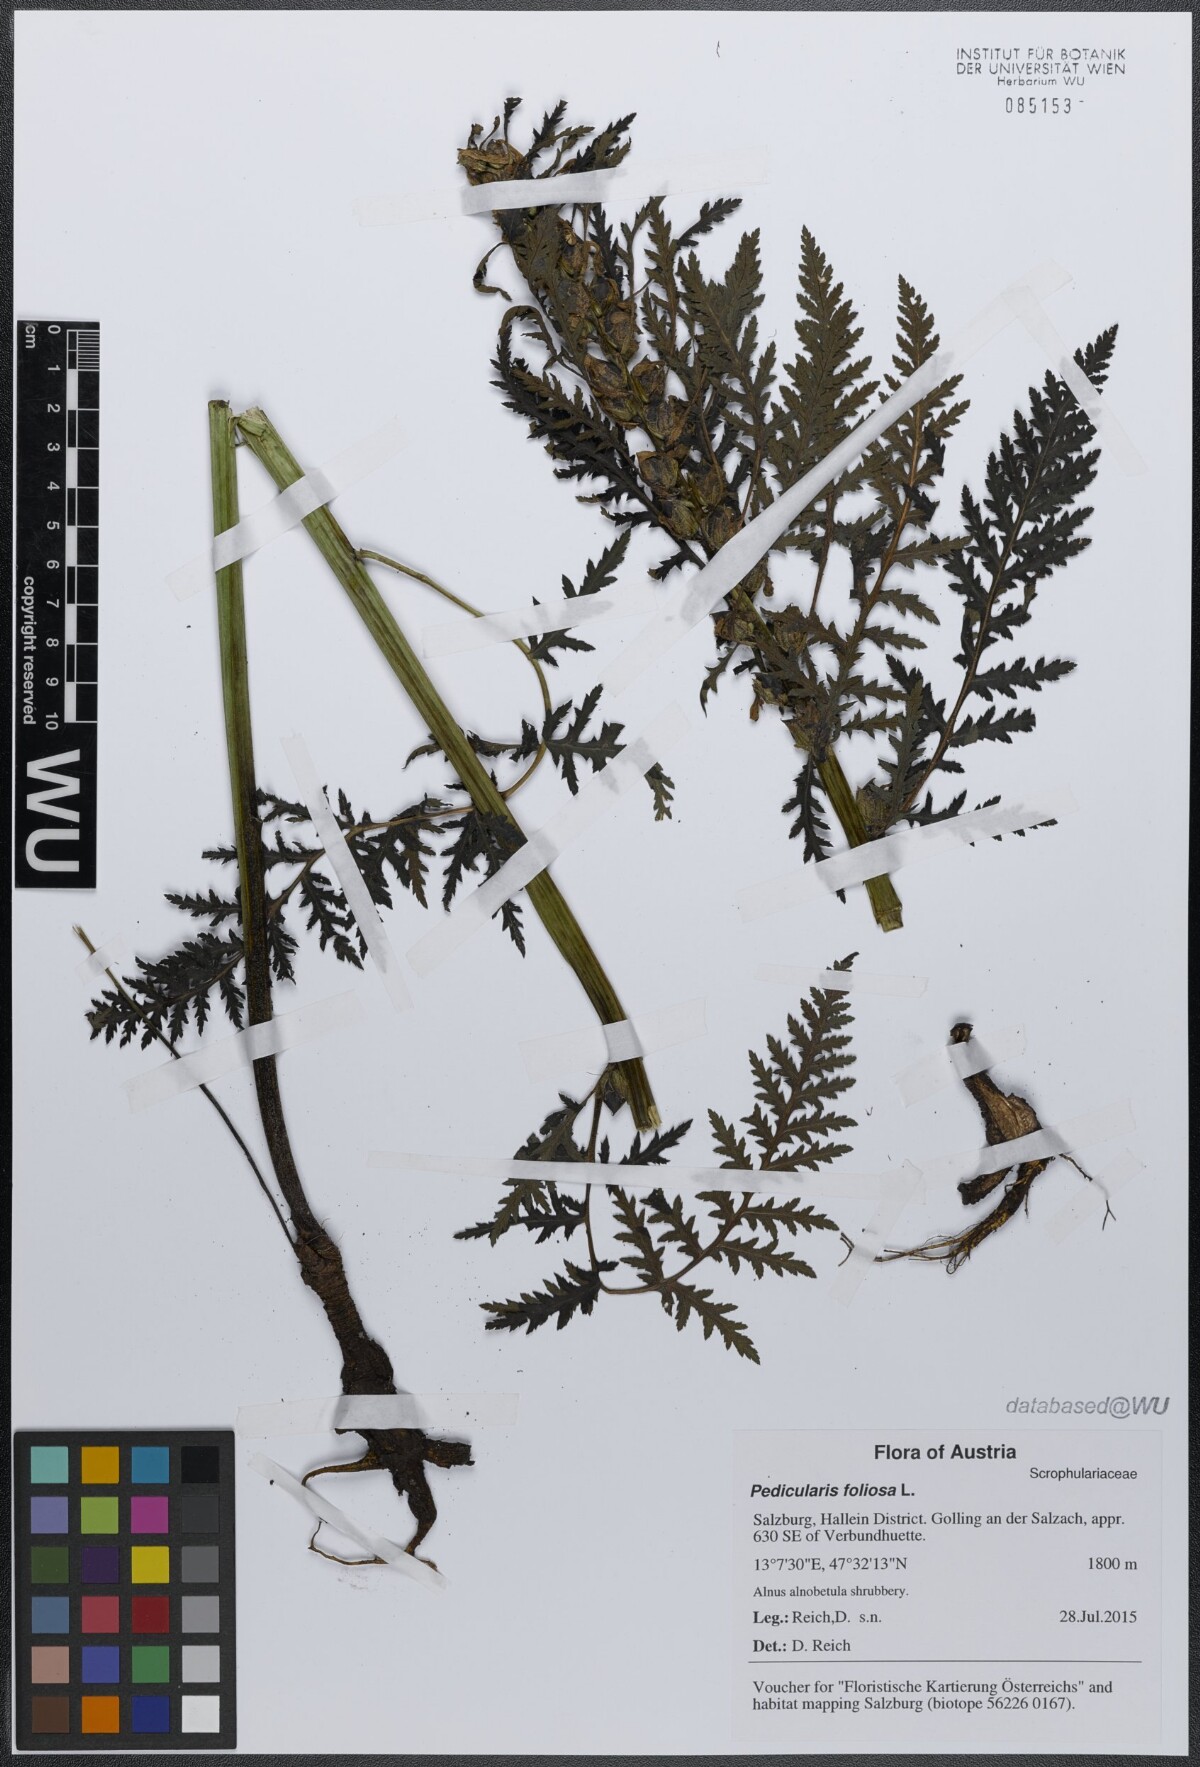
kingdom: Plantae
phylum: Tracheophyta
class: Magnoliopsida
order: Lamiales
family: Orobanchaceae
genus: Pedicularis
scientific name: Pedicularis foliosa
